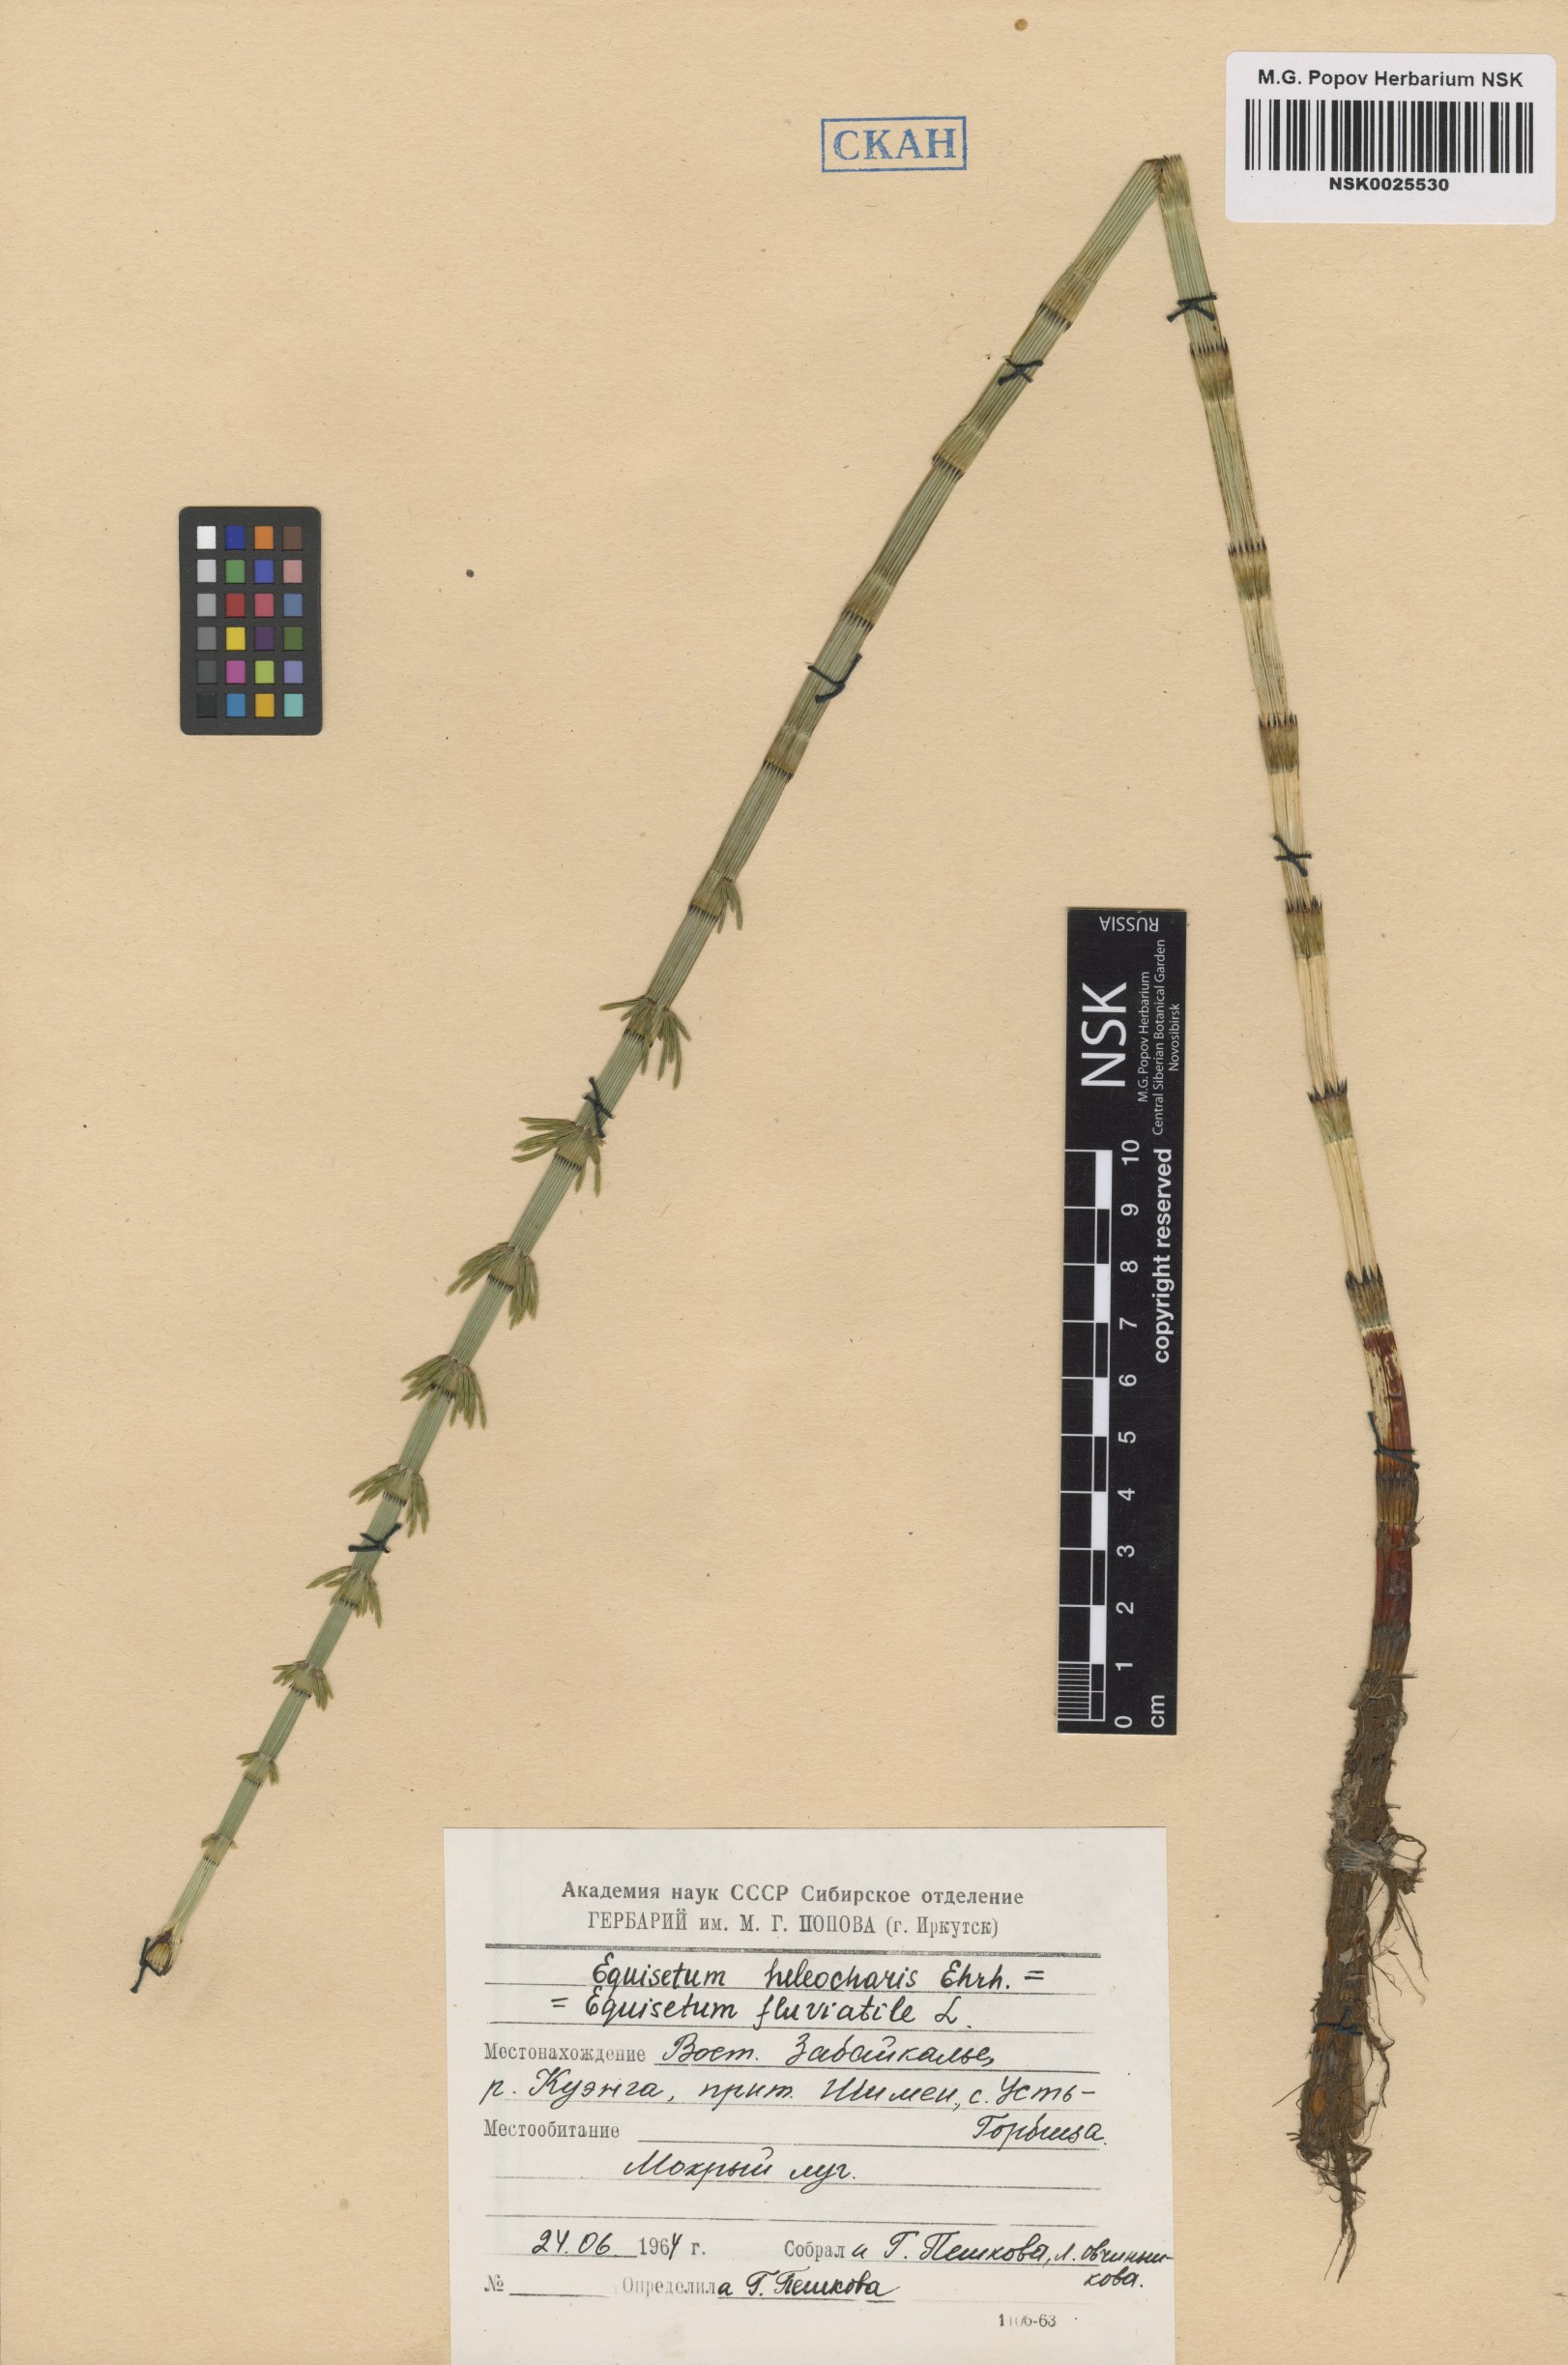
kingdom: Plantae
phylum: Tracheophyta
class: Polypodiopsida
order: Equisetales
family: Equisetaceae
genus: Equisetum
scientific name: Equisetum fluviatile
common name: Water horsetail
